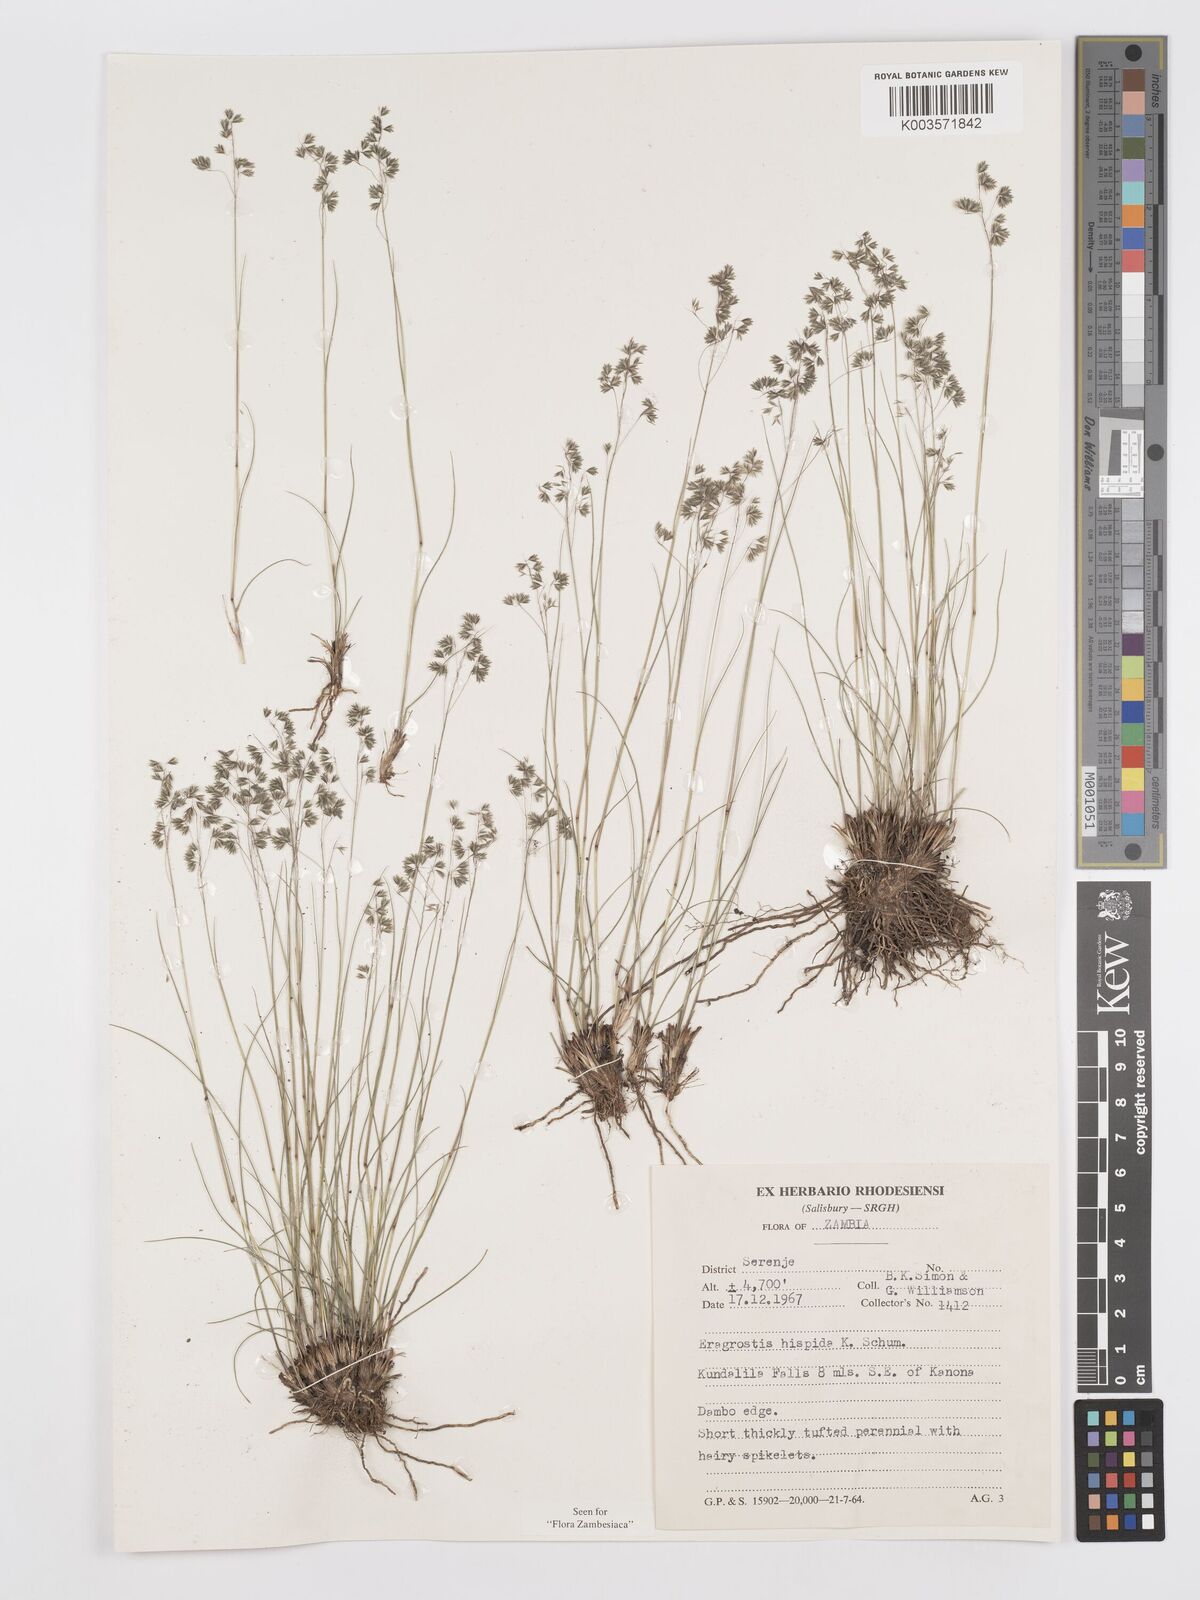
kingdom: Plantae
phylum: Tracheophyta
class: Liliopsida
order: Poales
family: Poaceae
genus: Eragrostis
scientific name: Eragrostis hispida
